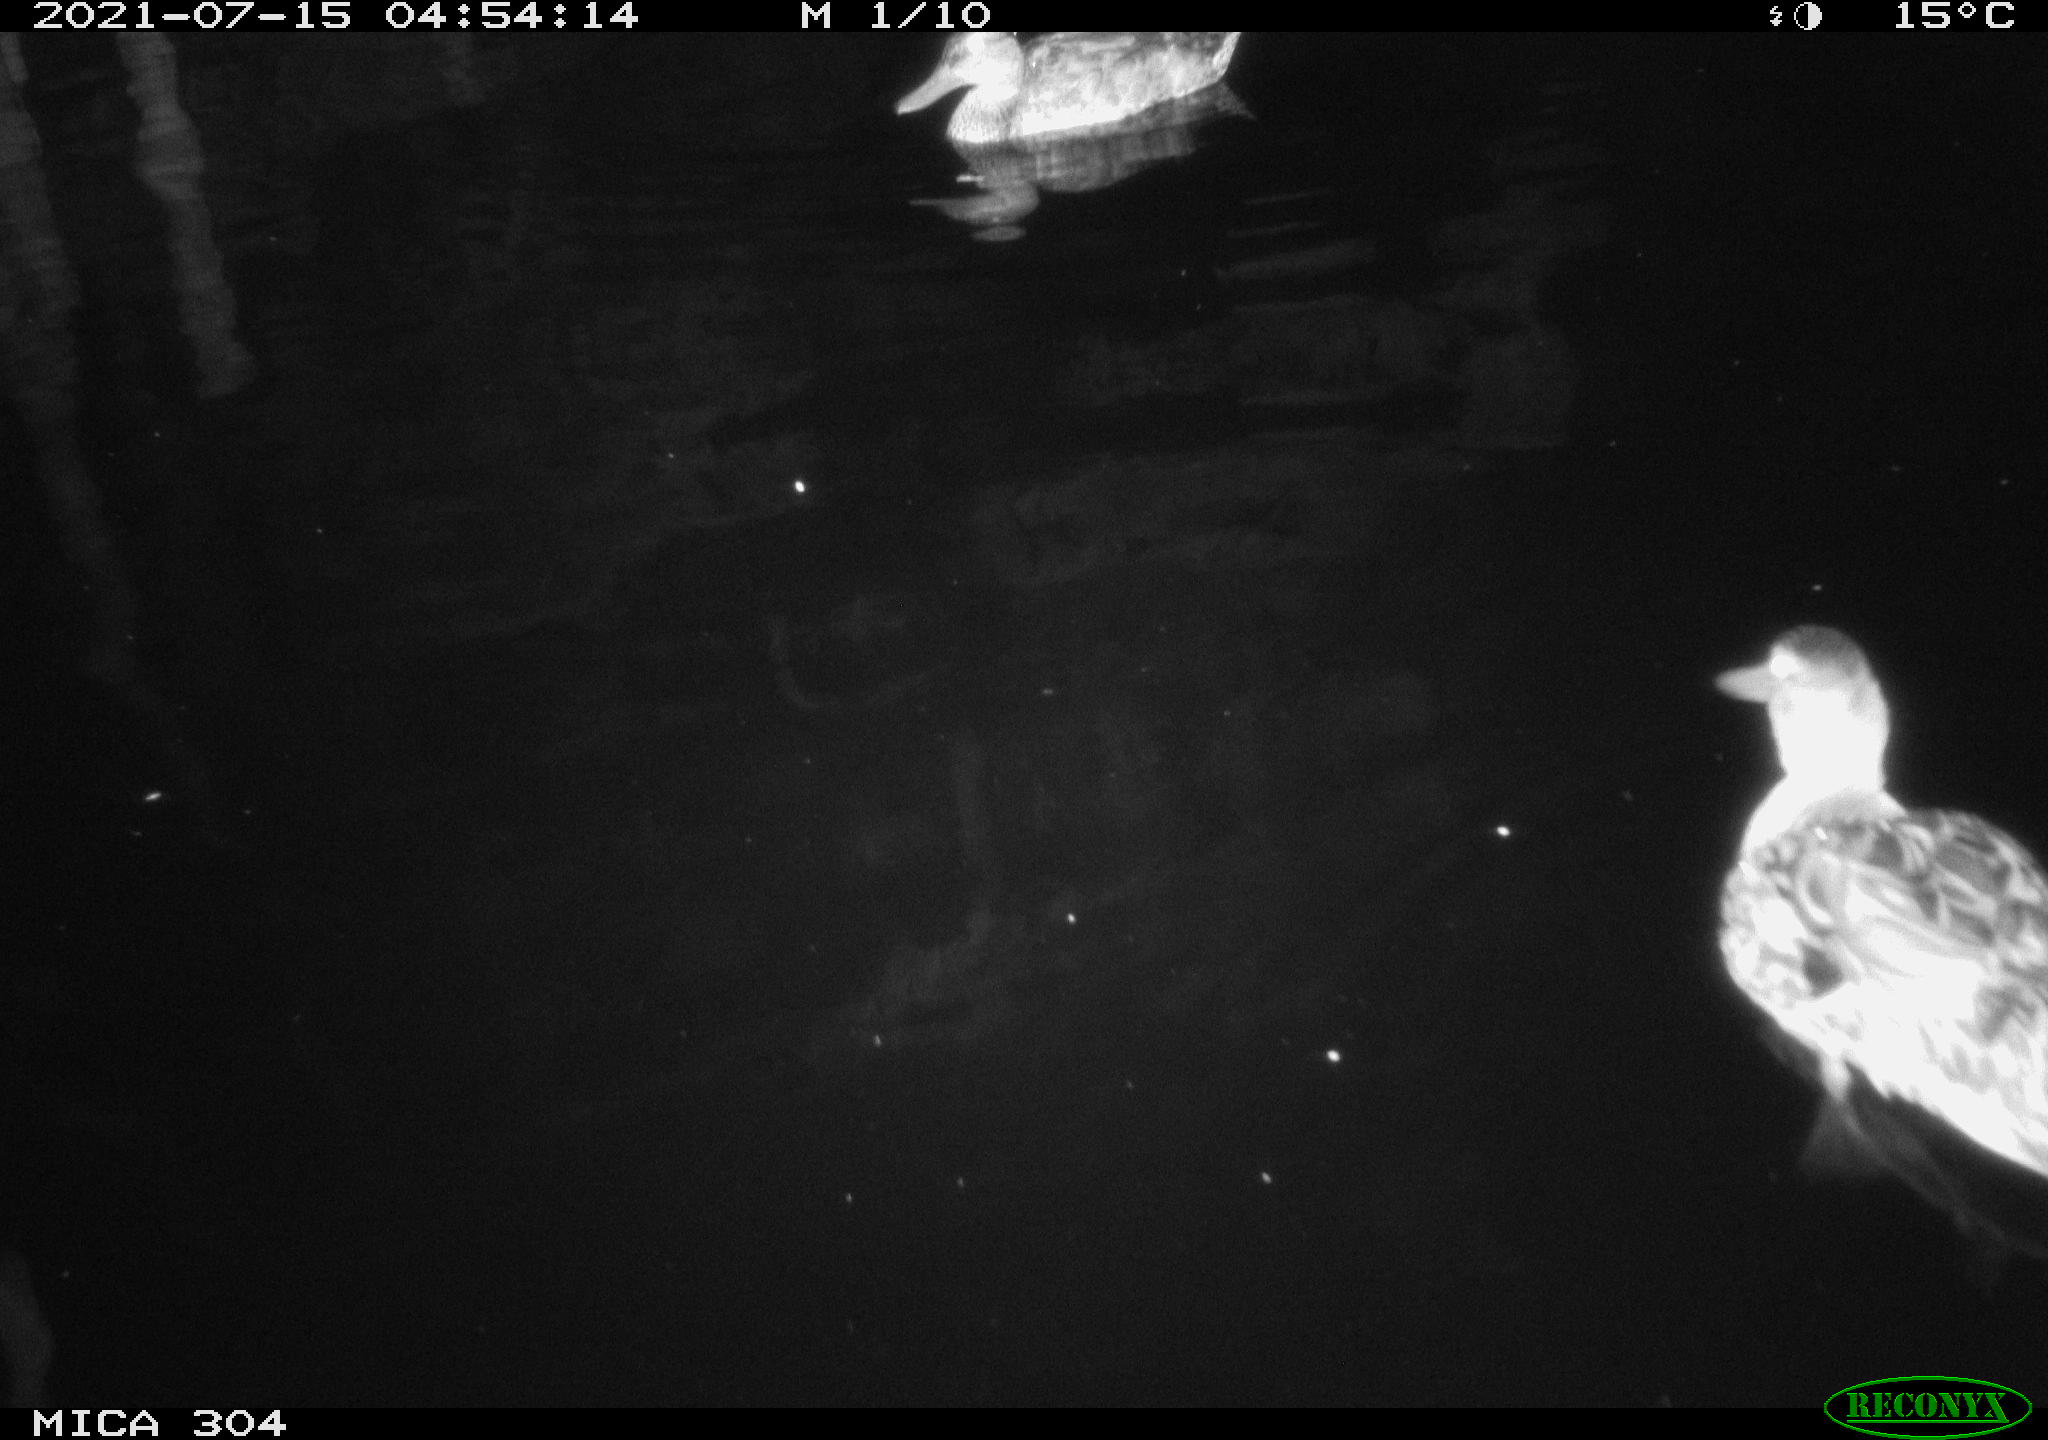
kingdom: Animalia
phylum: Chordata
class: Aves
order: Anseriformes
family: Anatidae
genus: Anas
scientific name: Anas platyrhynchos
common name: Mallard
